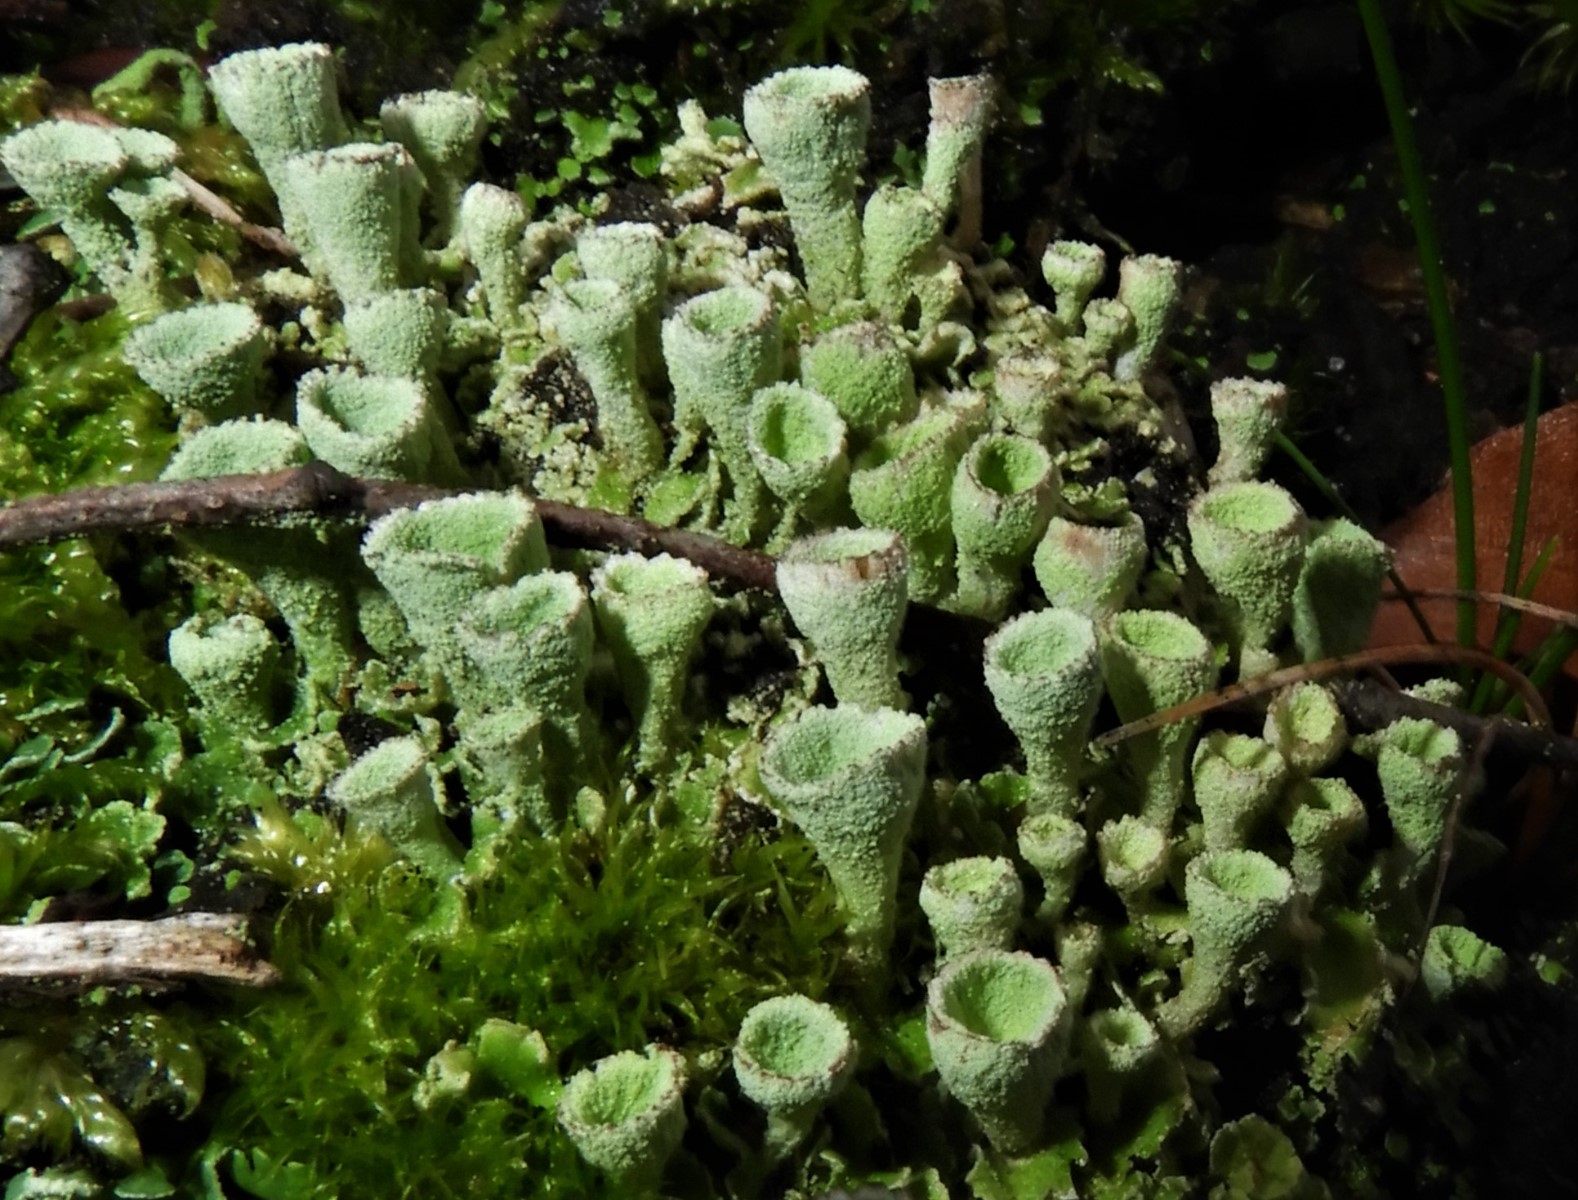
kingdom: Fungi
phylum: Ascomycota
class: Lecanoromycetes
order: Lecanorales
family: Cladoniaceae
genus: Cladonia
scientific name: Cladonia humilis
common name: lav bægerlav
